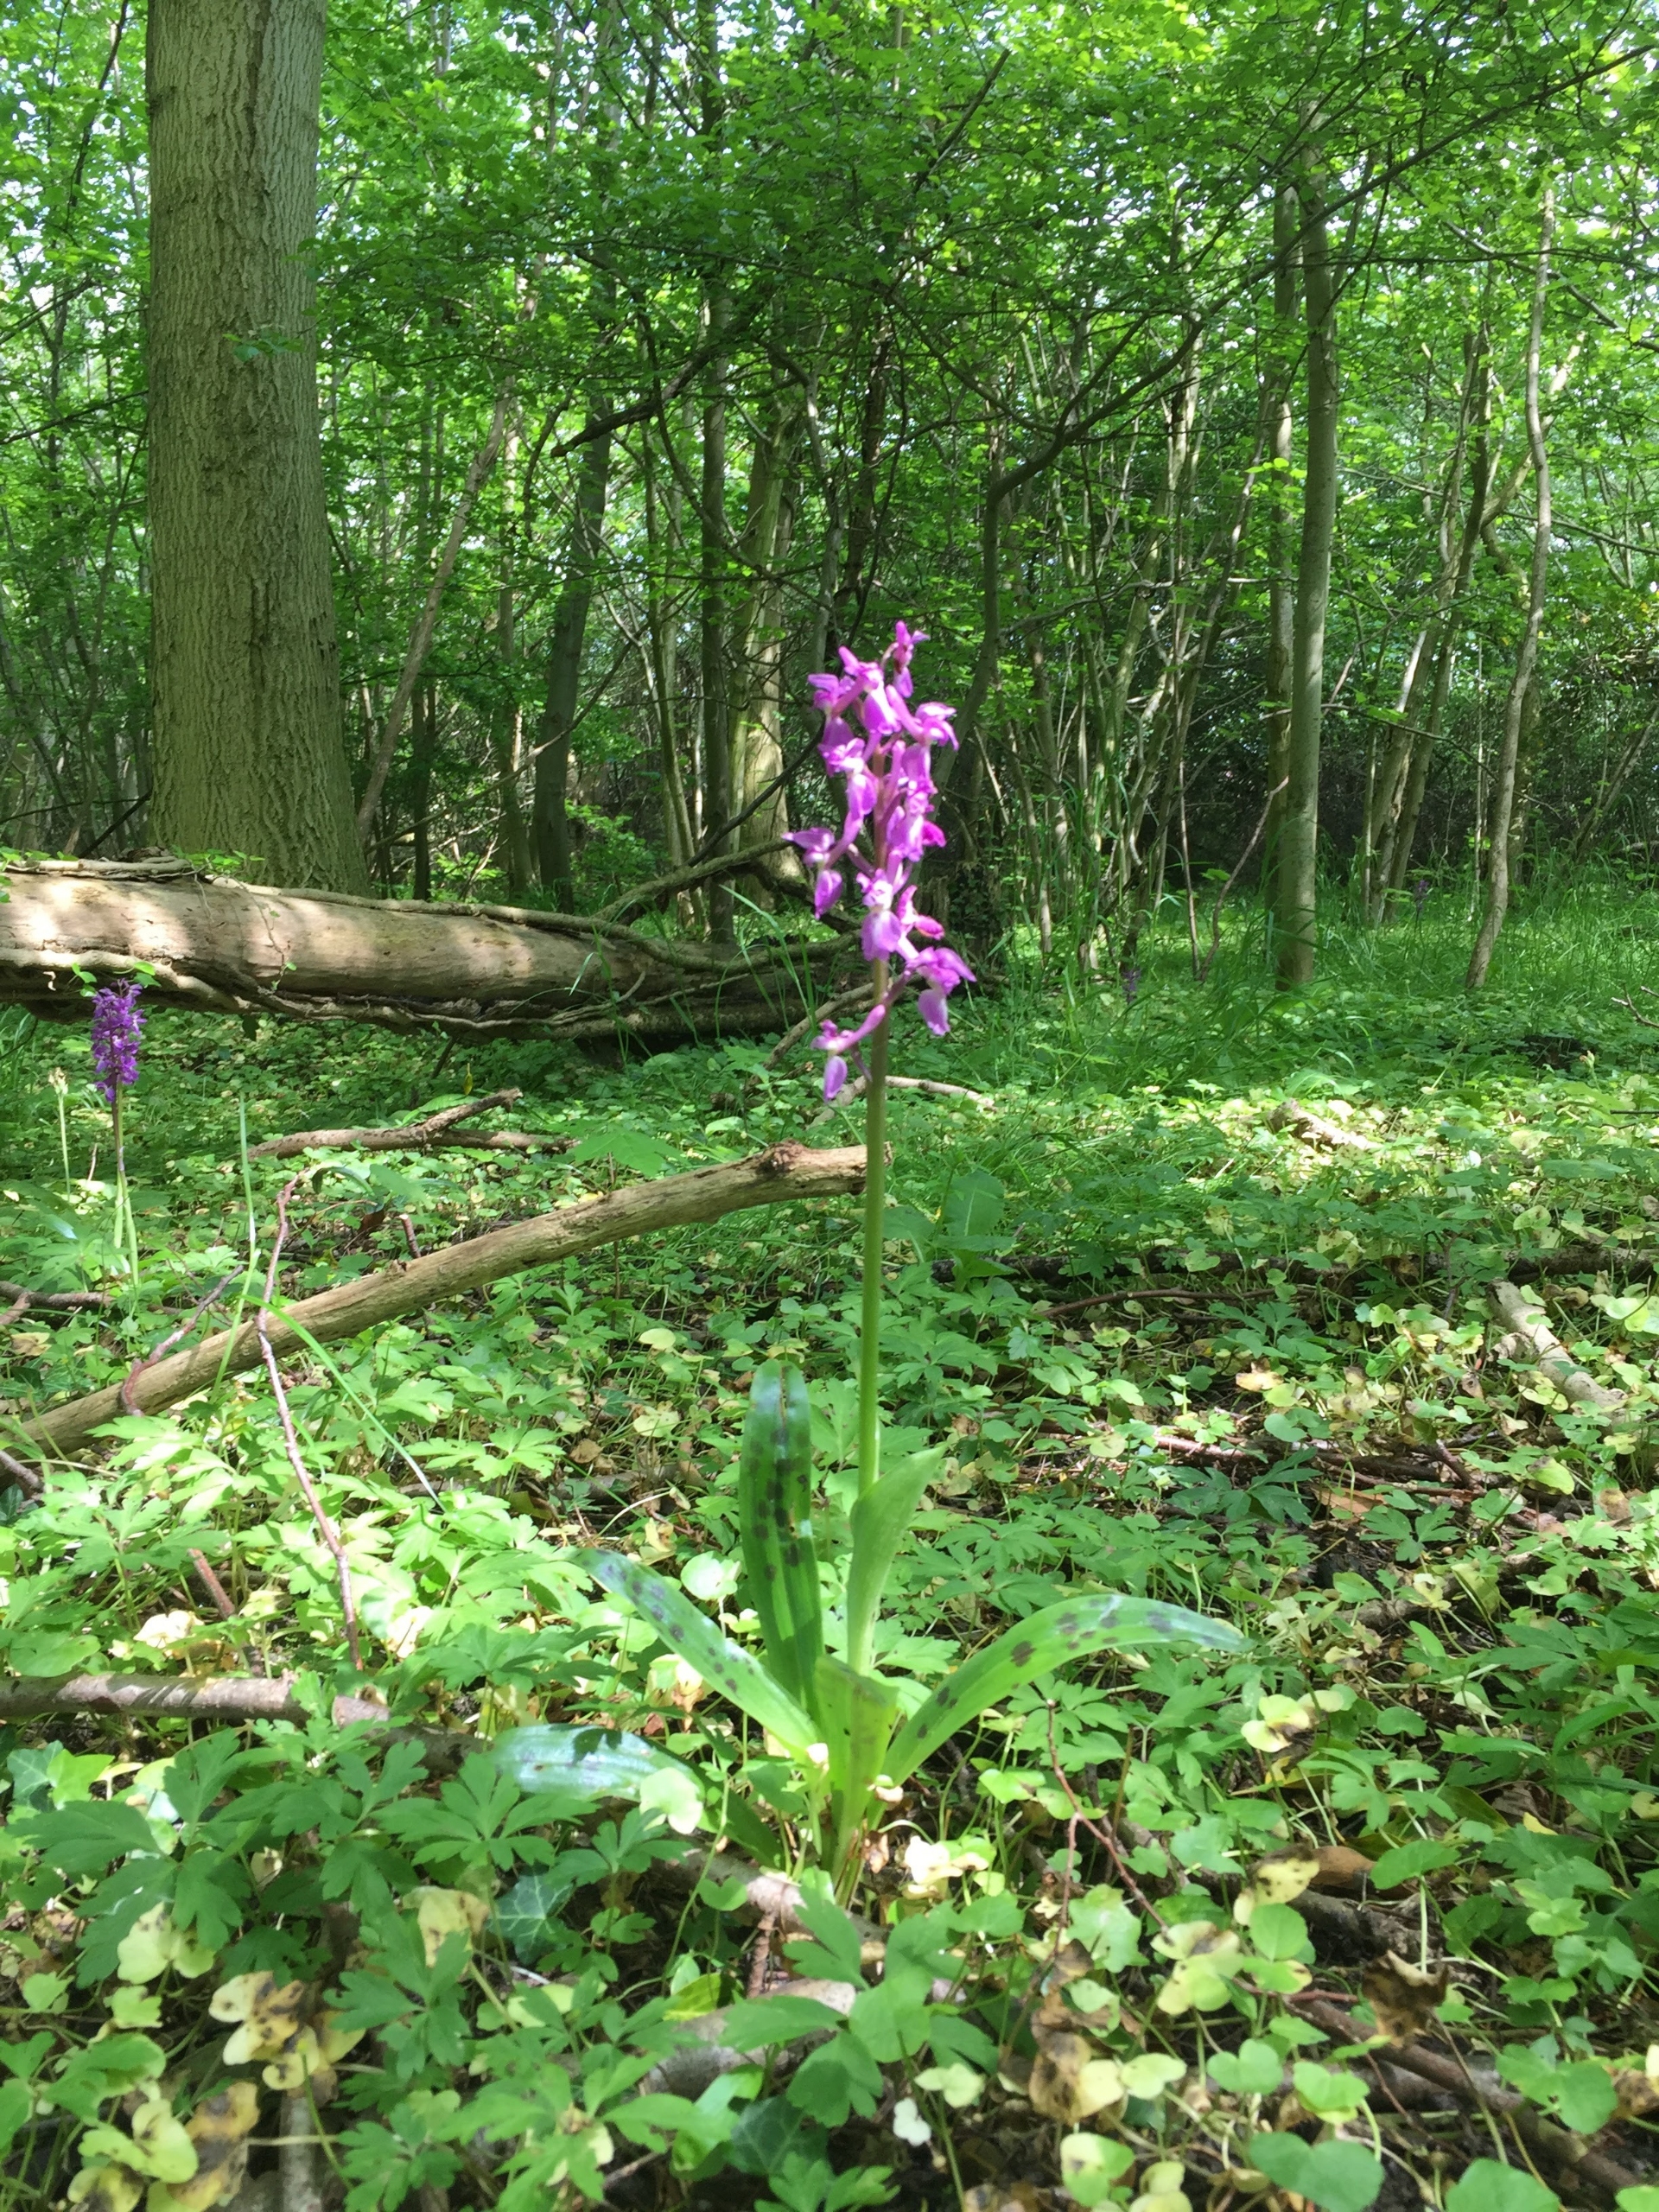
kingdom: Plantae
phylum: Tracheophyta
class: Liliopsida
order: Asparagales
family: Orchidaceae
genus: Orchis
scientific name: Orchis mascula
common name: Tyndakset gøgeurt
